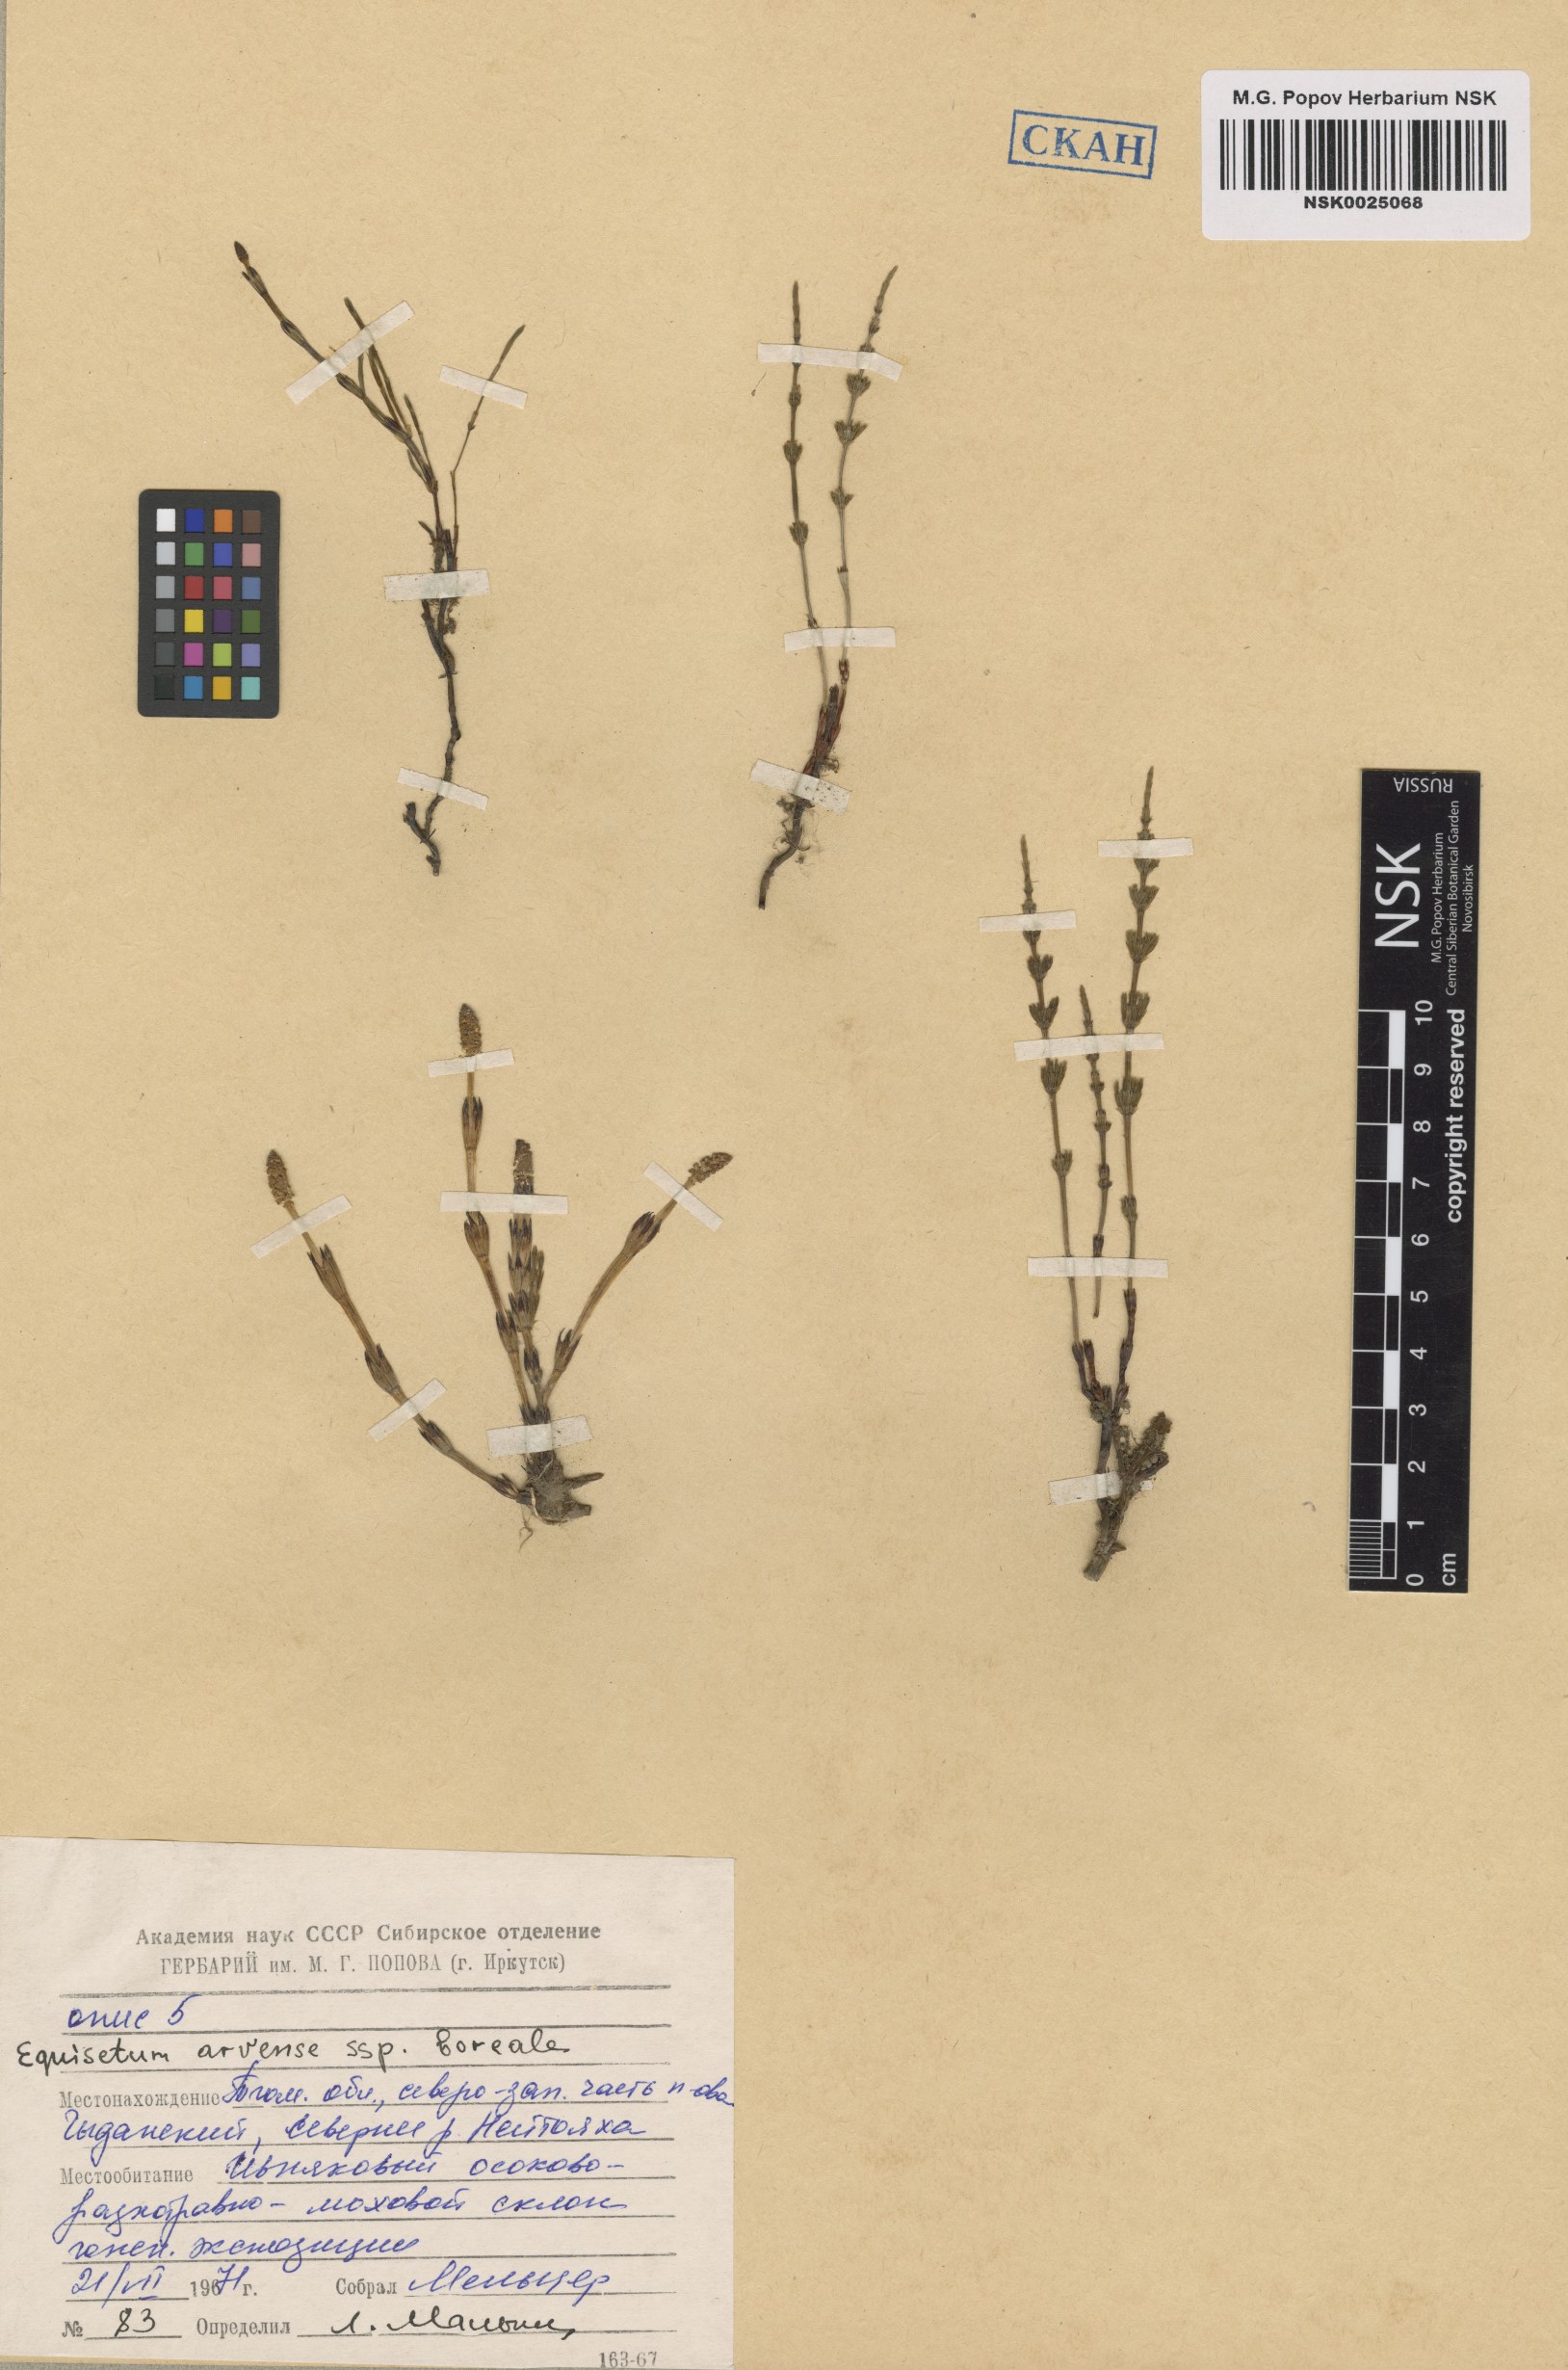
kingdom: Plantae
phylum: Tracheophyta
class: Polypodiopsida
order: Equisetales
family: Equisetaceae
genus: Equisetum
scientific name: Equisetum arvense
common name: Field horsetail
